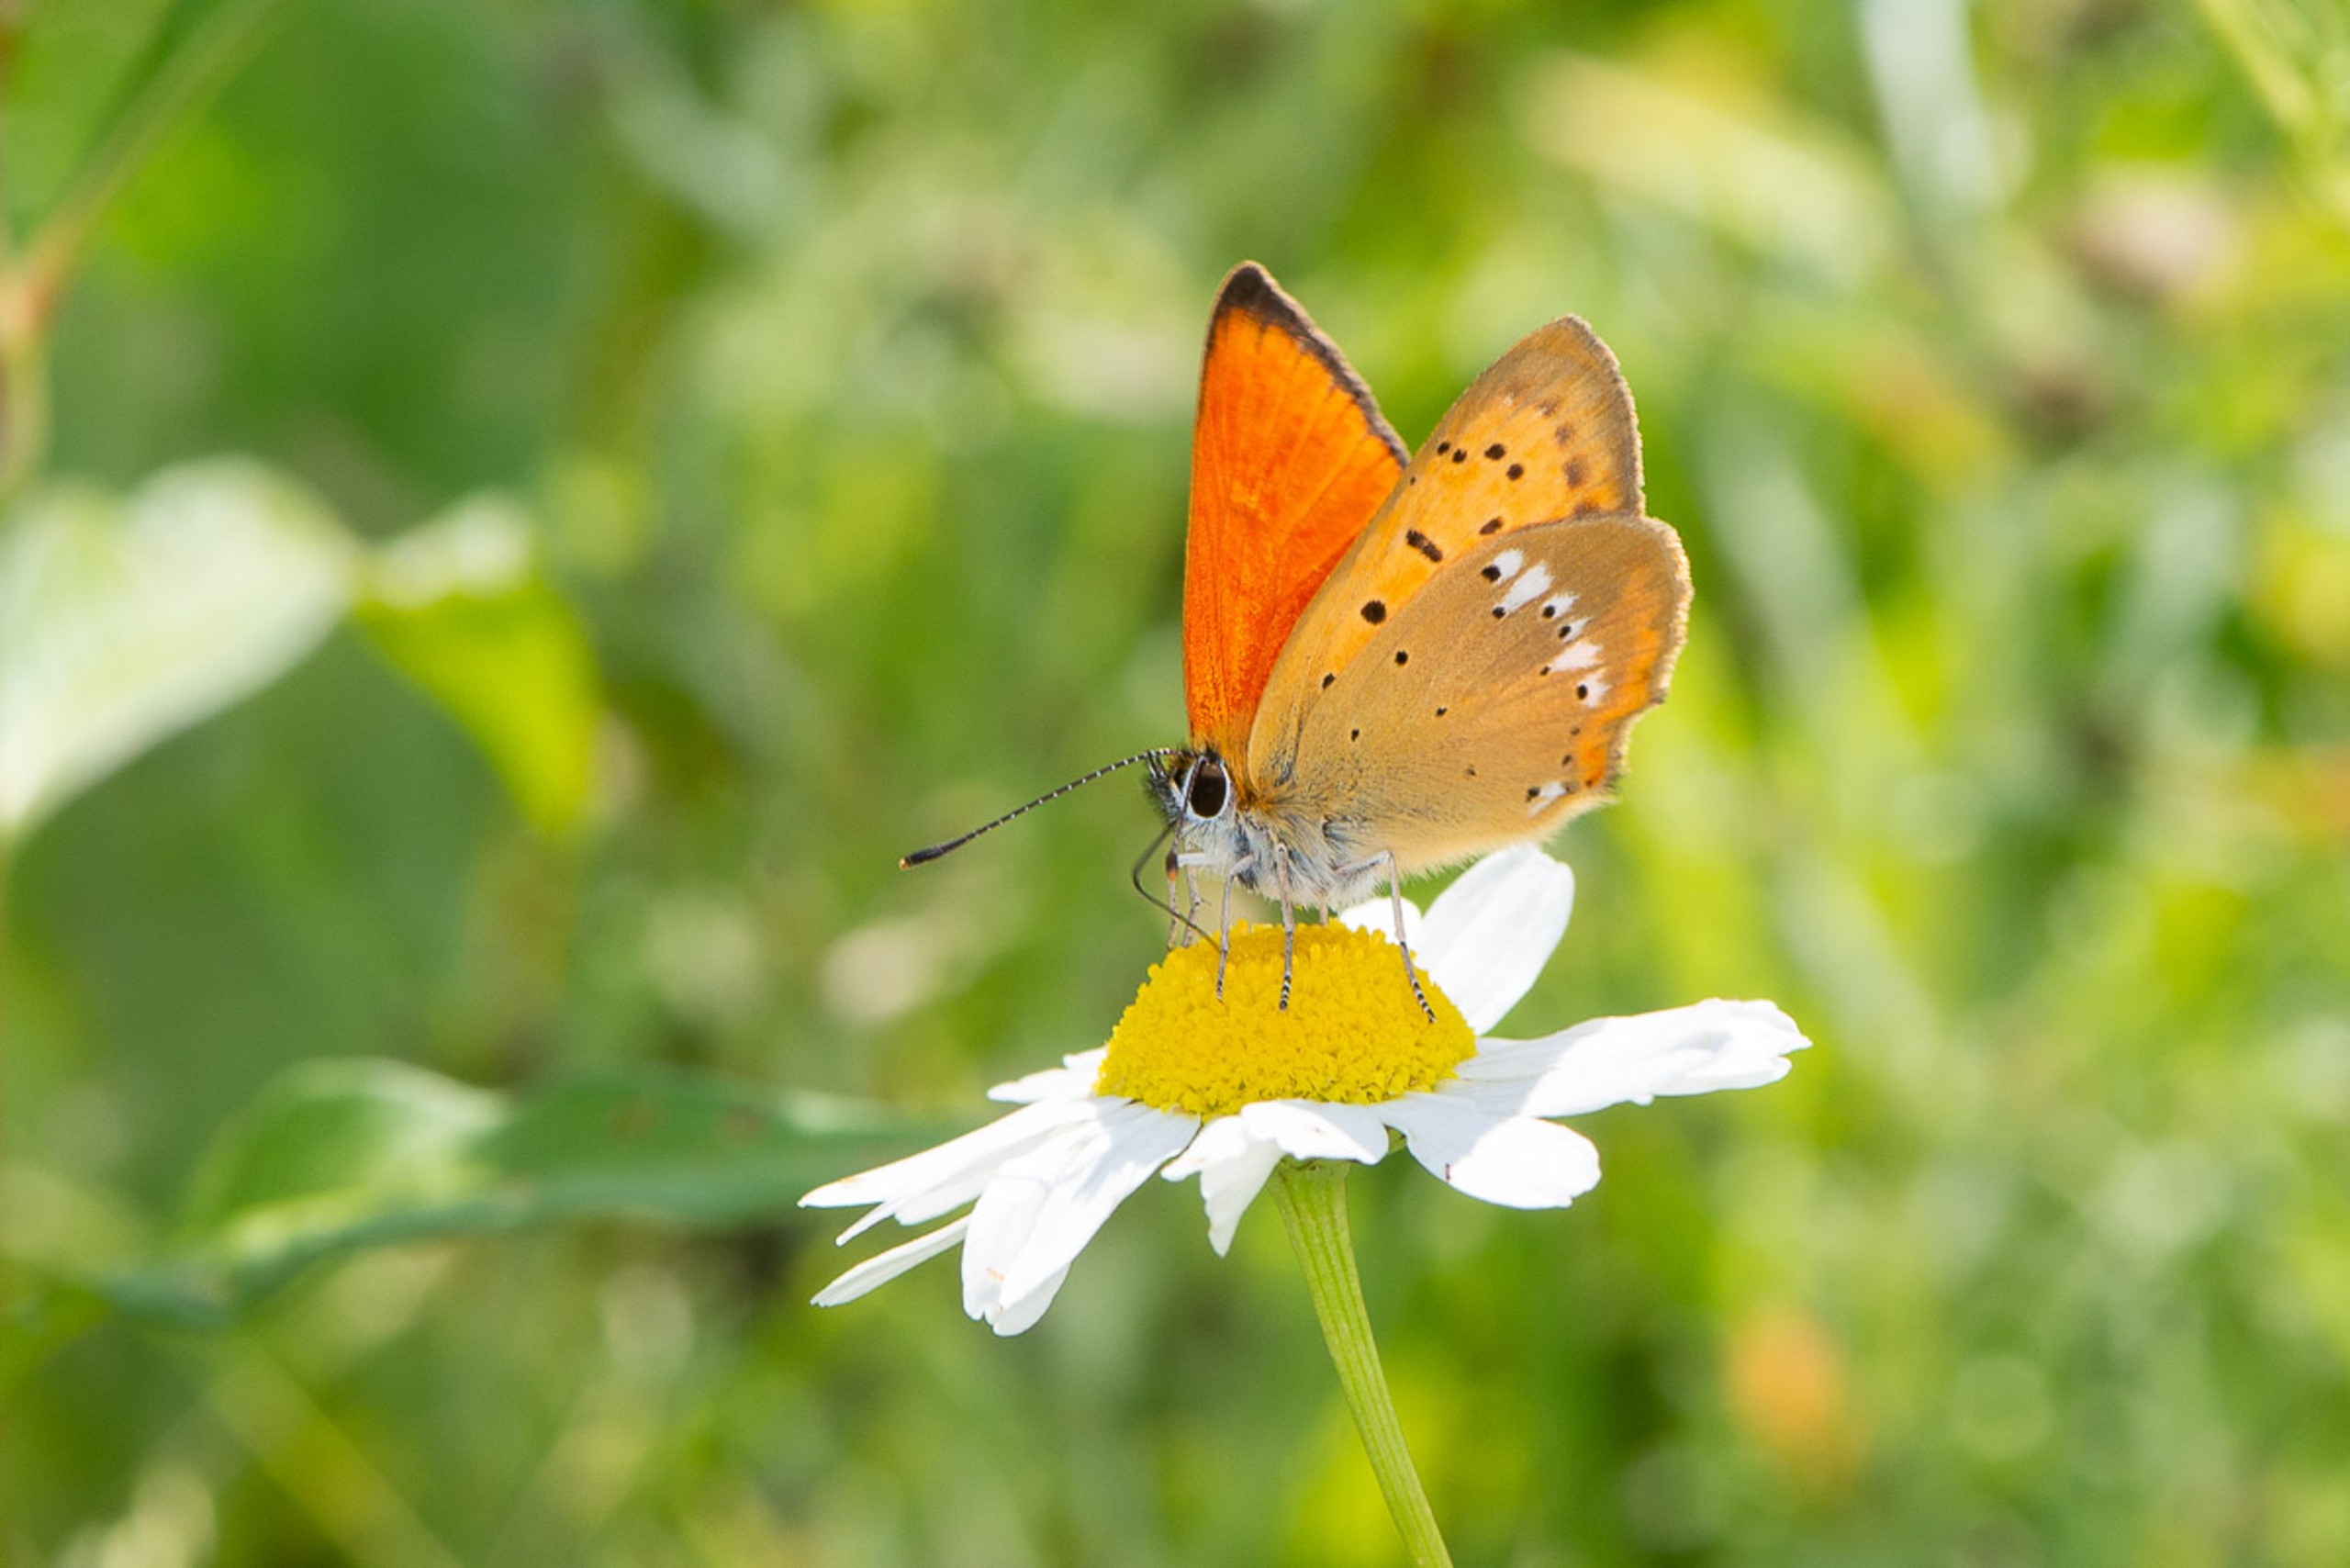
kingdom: Animalia
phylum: Arthropoda
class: Insecta
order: Lepidoptera
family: Lycaenidae
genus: Lycaena
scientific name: Lycaena virgaureae
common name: Dukatsommerfugl
